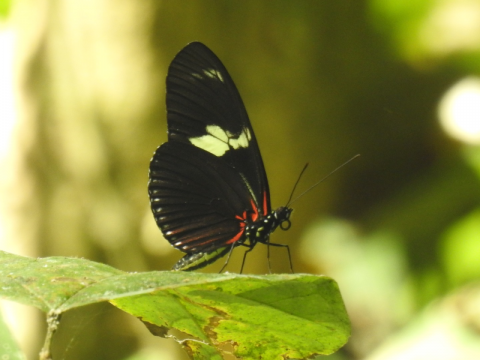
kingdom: Animalia
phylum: Arthropoda
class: Insecta
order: Lepidoptera
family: Nymphalidae
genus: Heliconius
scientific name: Heliconius doris
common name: Doris Longwing
